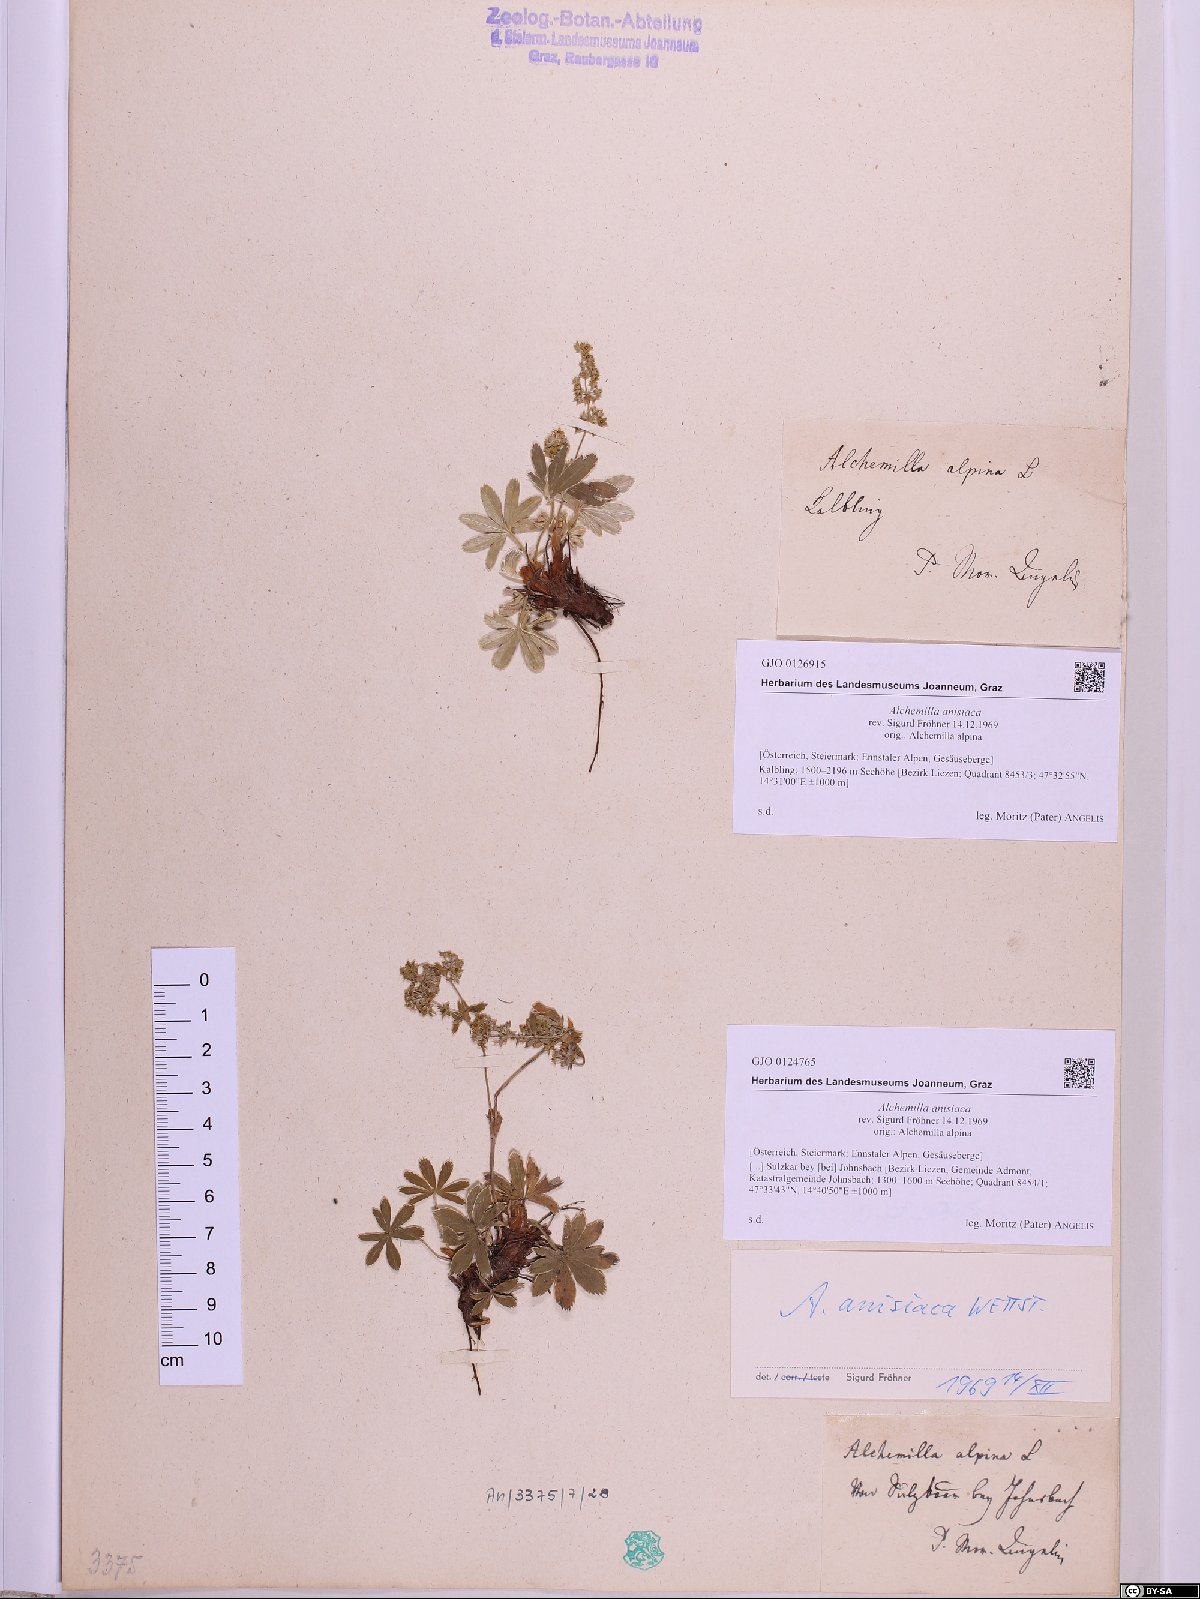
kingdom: Plantae
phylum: Tracheophyta
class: Magnoliopsida
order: Rosales
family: Rosaceae
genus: Alchemilla
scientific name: Alchemilla anisiaca
